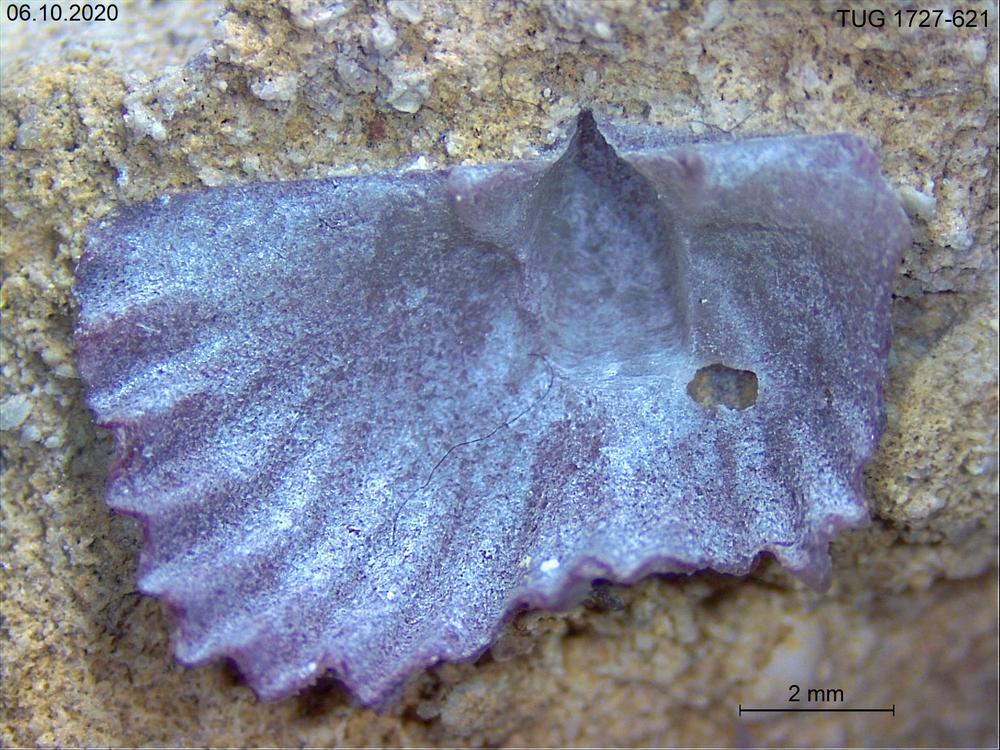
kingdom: Animalia
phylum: Brachiopoda
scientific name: Brachiopoda
